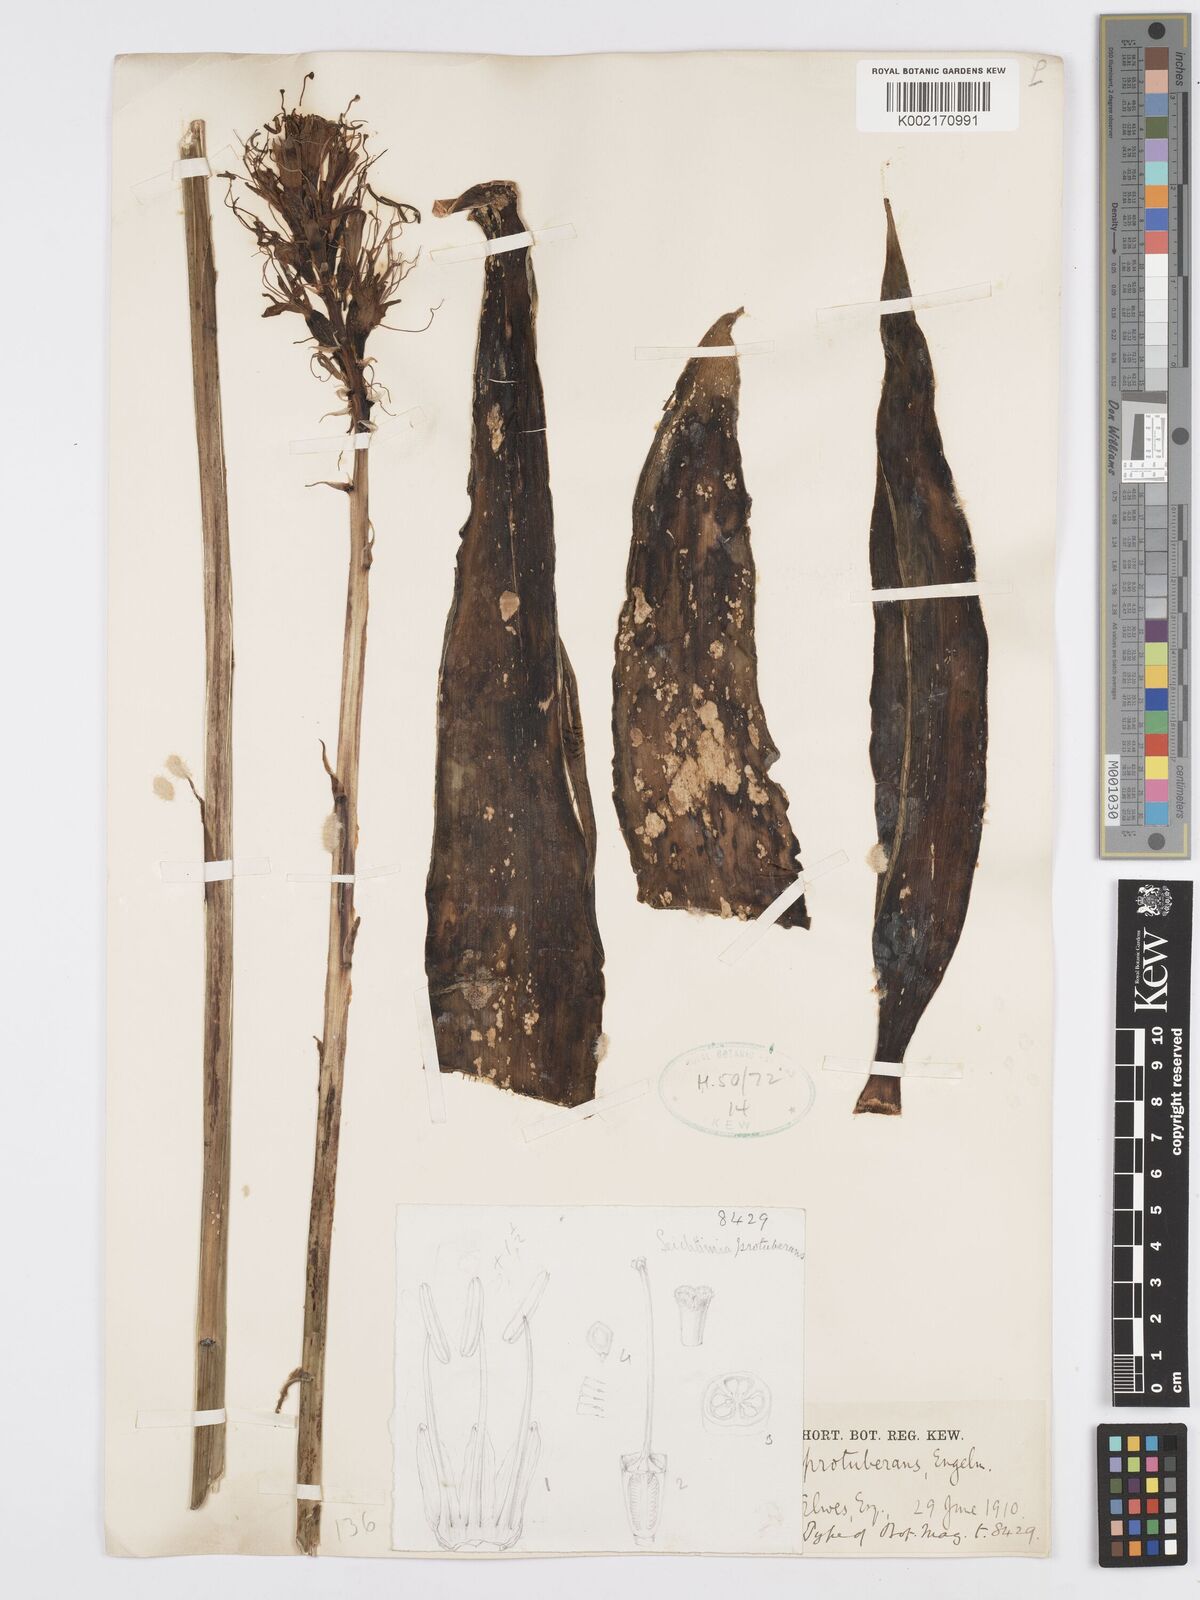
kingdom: Plantae
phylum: Tracheophyta
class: Liliopsida
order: Asparagales
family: Asparagaceae
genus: Agave
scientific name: Agave guttata
